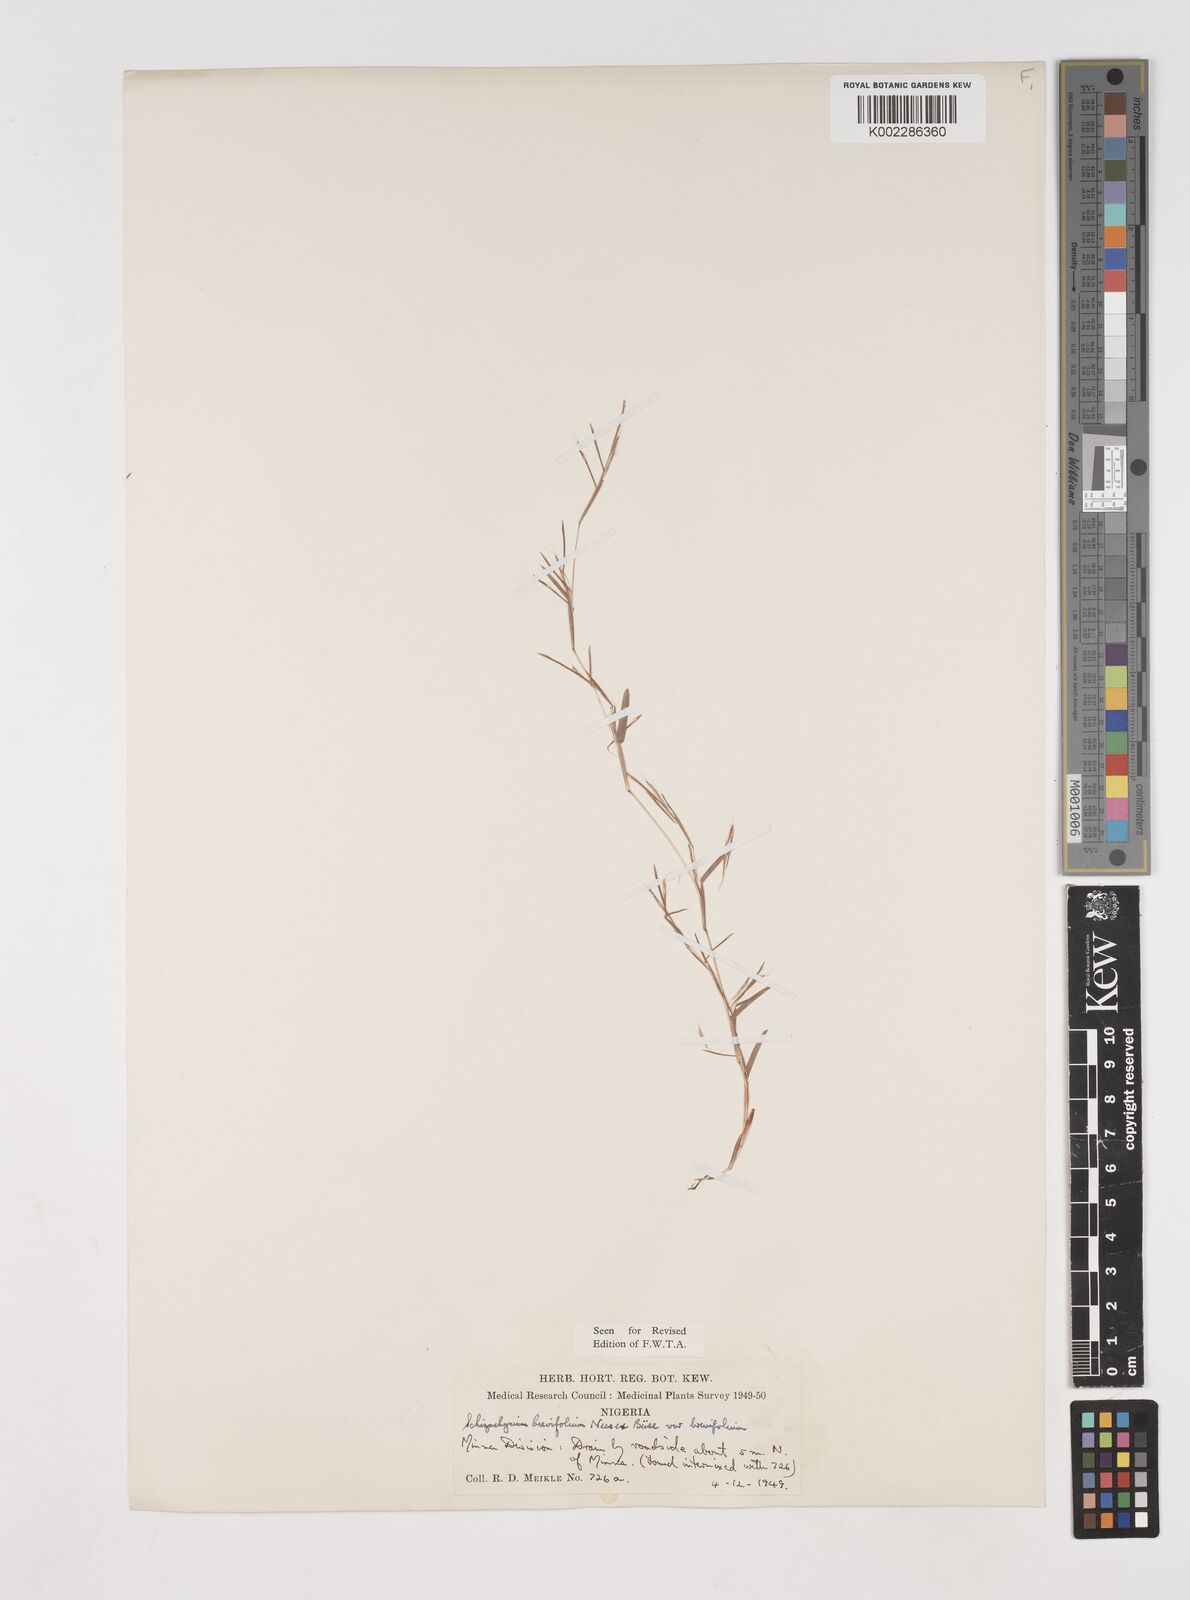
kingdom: Plantae
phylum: Tracheophyta
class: Liliopsida
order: Poales
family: Poaceae
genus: Schizachyrium
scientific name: Schizachyrium brevifolium
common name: Serillo dulce
